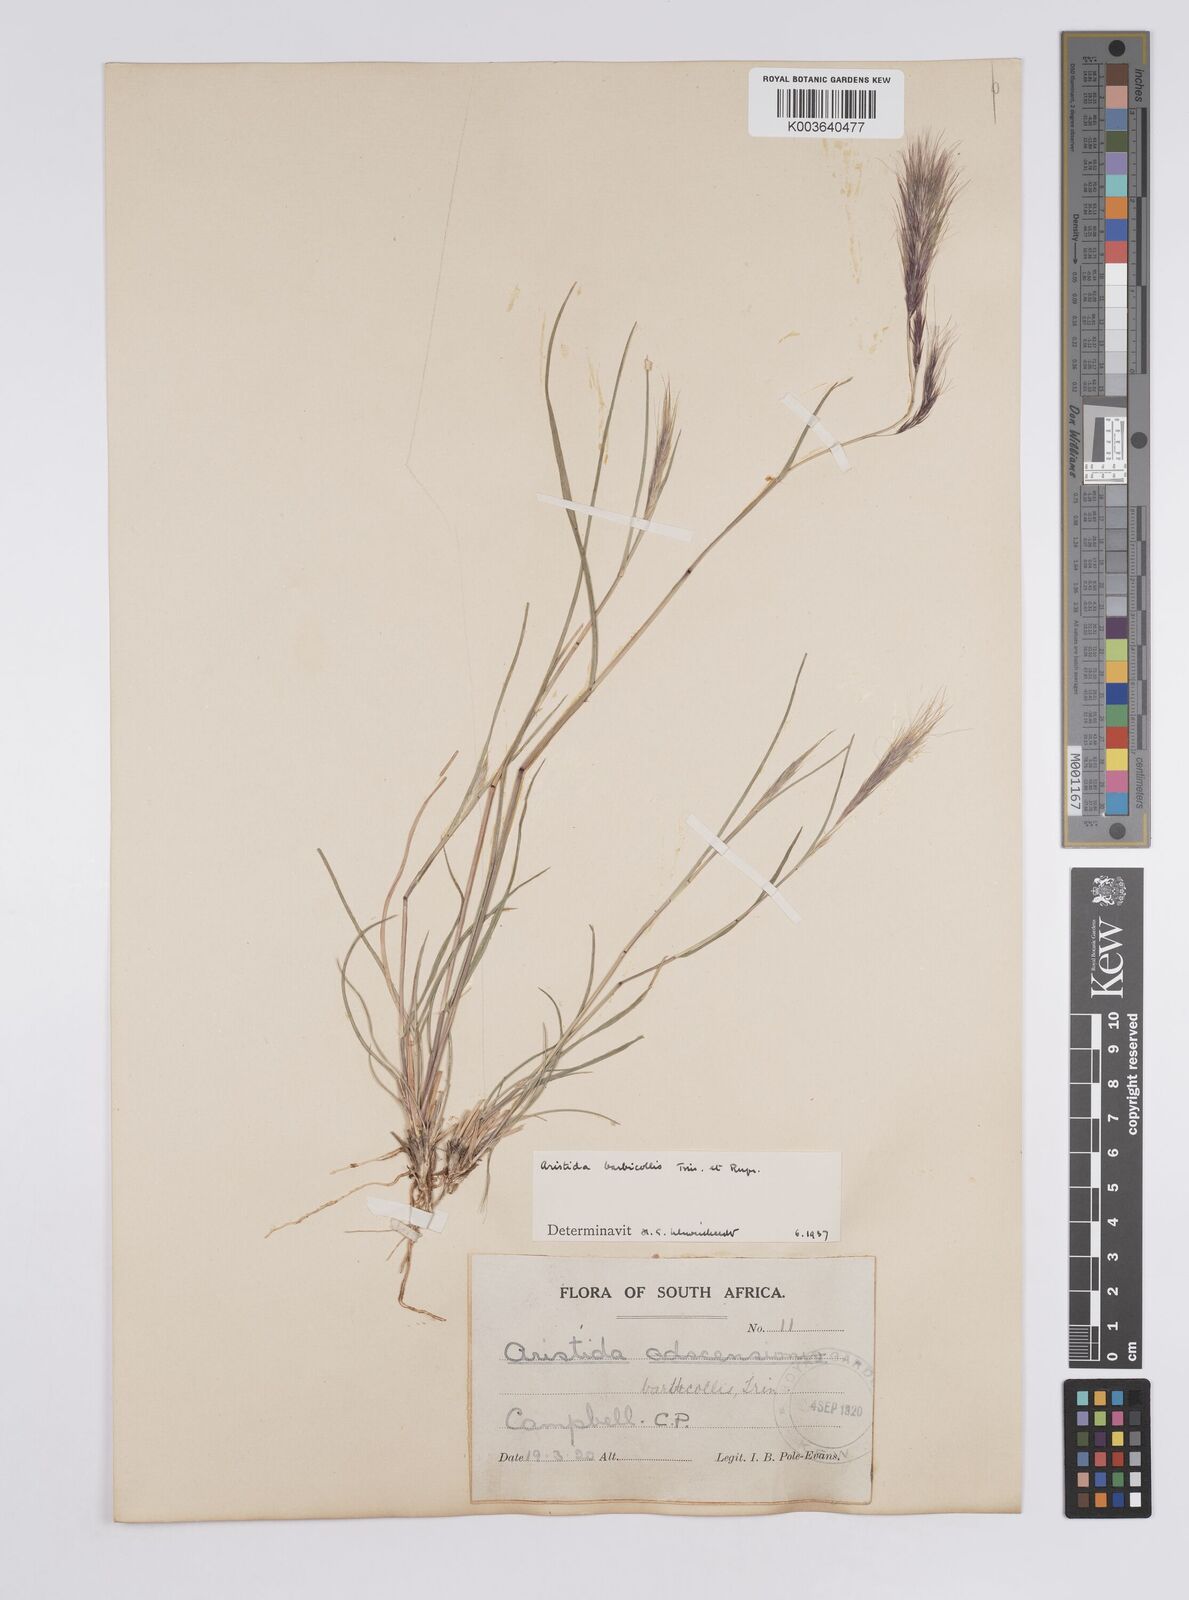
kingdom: Plantae
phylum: Tracheophyta
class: Liliopsida
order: Poales
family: Poaceae
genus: Aristida
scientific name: Aristida barbicollis
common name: Spreading prickle grass
